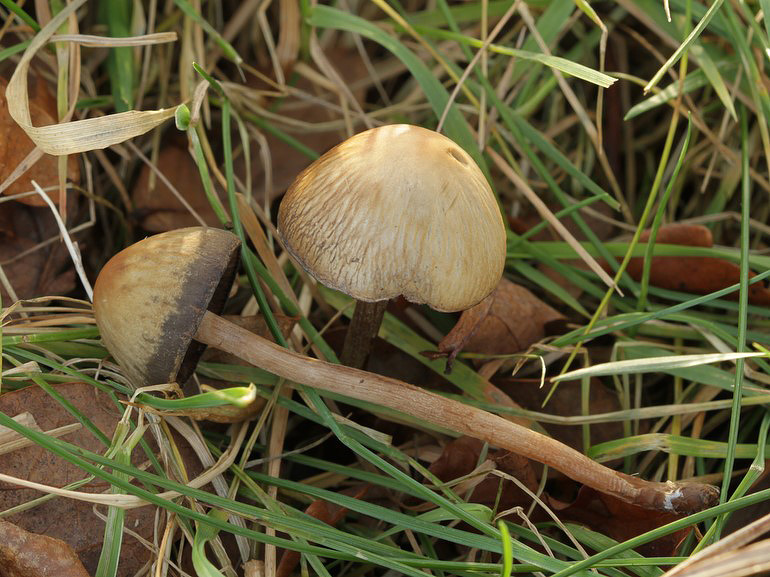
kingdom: Fungi
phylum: Basidiomycota
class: Agaricomycetes
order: Agaricales
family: Bolbitiaceae
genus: Panaeolus
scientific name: Panaeolus olivaceus
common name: lysstokket glanshat
